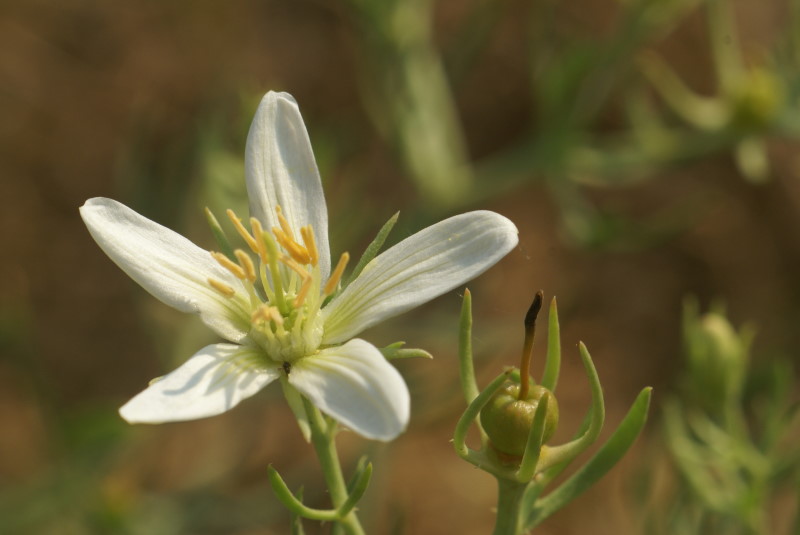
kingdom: Plantae
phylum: Tracheophyta
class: Magnoliopsida
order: Sapindales
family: Tetradiclidaceae
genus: Peganum
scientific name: Peganum harmala
